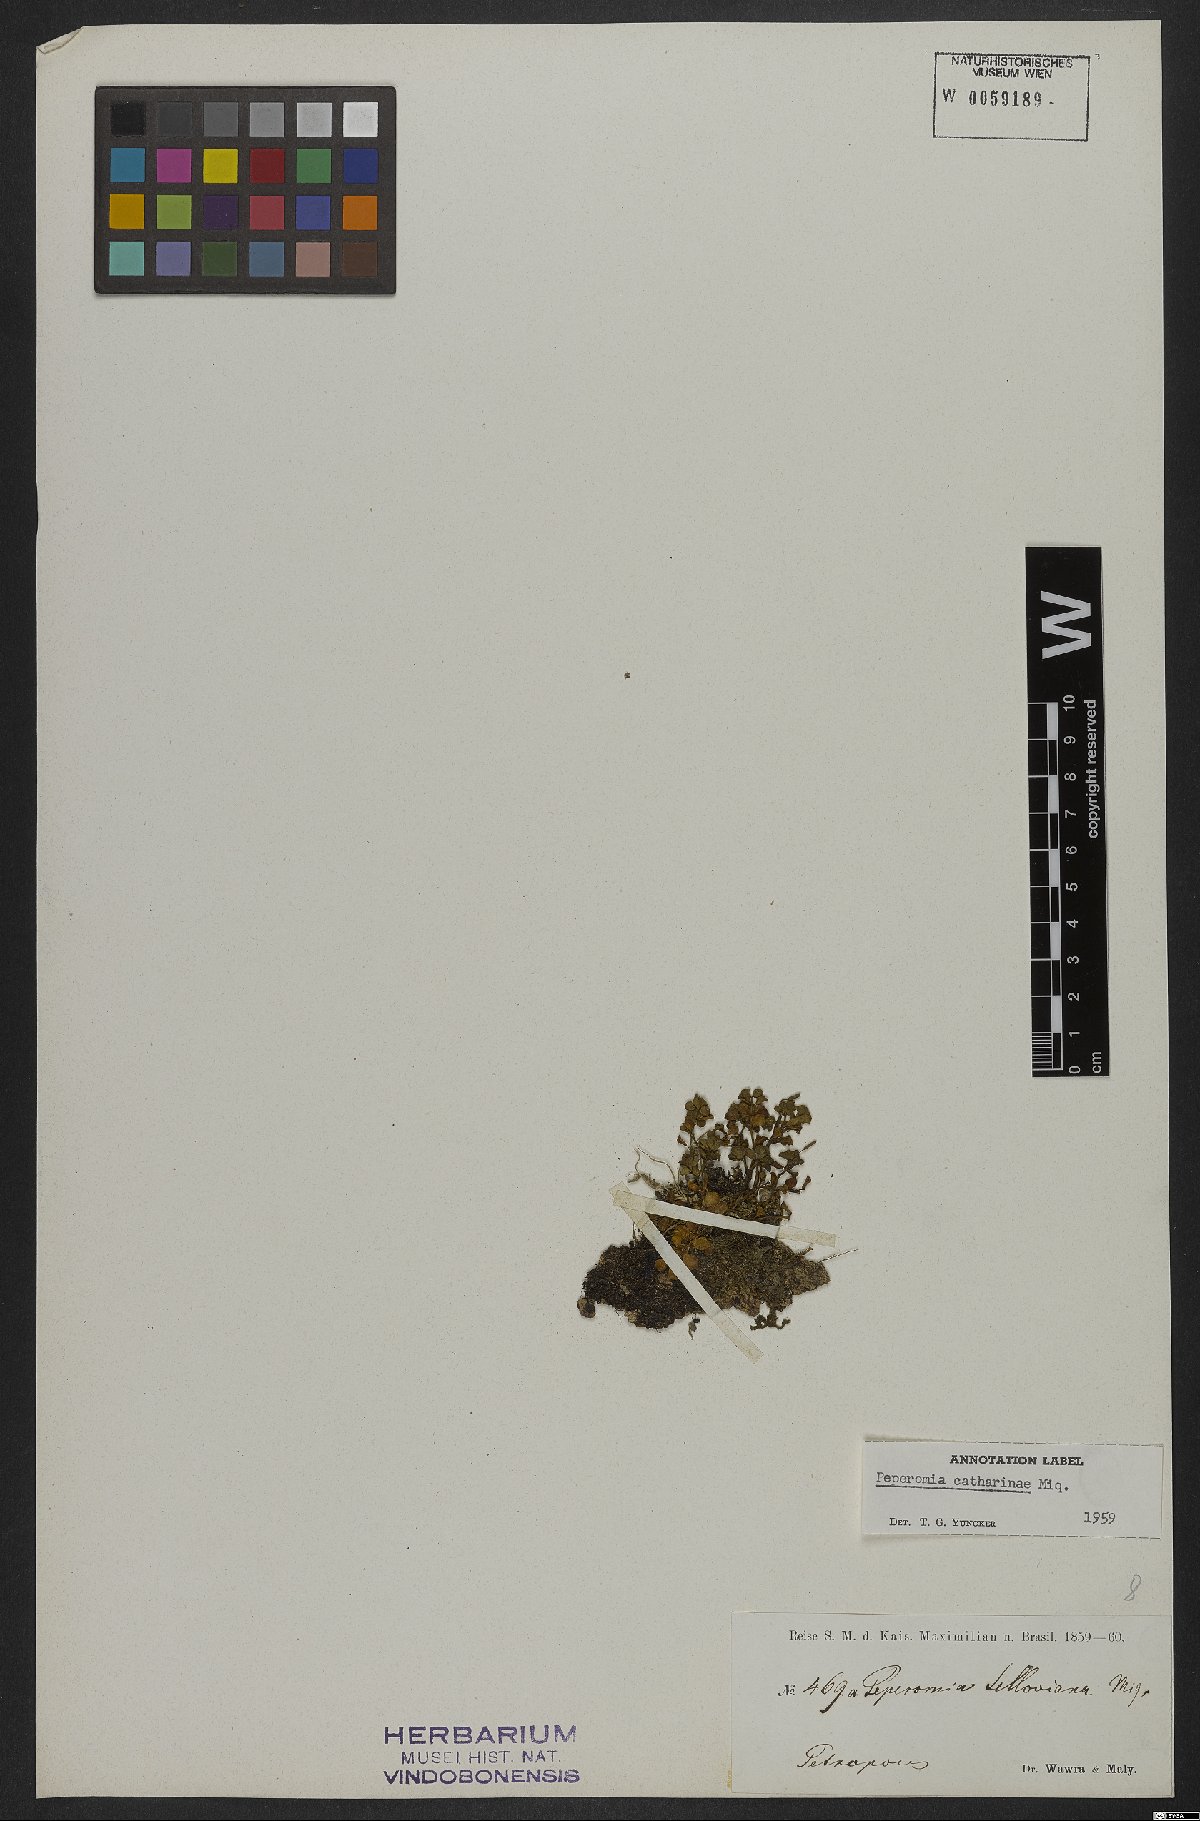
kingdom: Plantae
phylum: Tracheophyta
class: Magnoliopsida
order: Piperales
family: Piperaceae
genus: Peperomia
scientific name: Peperomia catharinae
